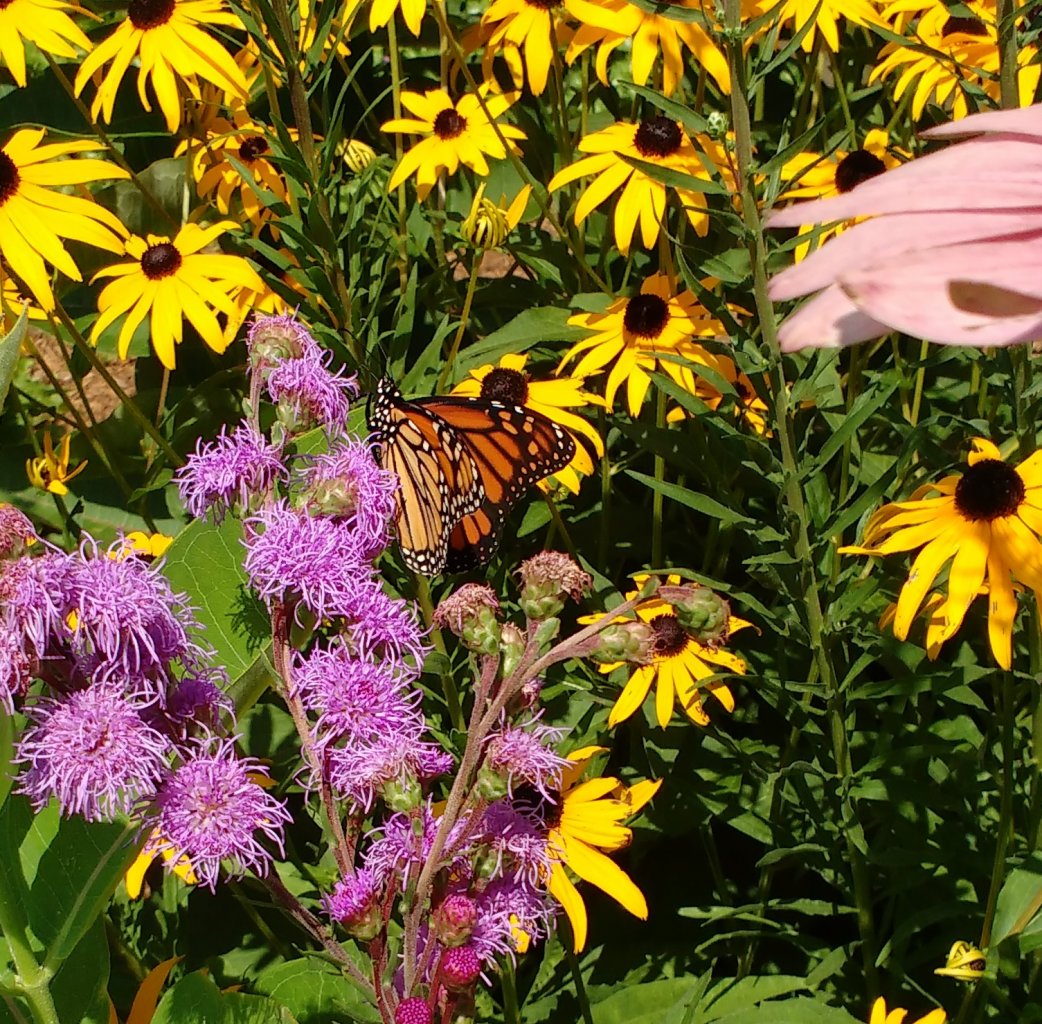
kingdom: Animalia
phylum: Arthropoda
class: Insecta
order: Lepidoptera
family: Nymphalidae
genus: Danaus
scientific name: Danaus plexippus
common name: Monarch
